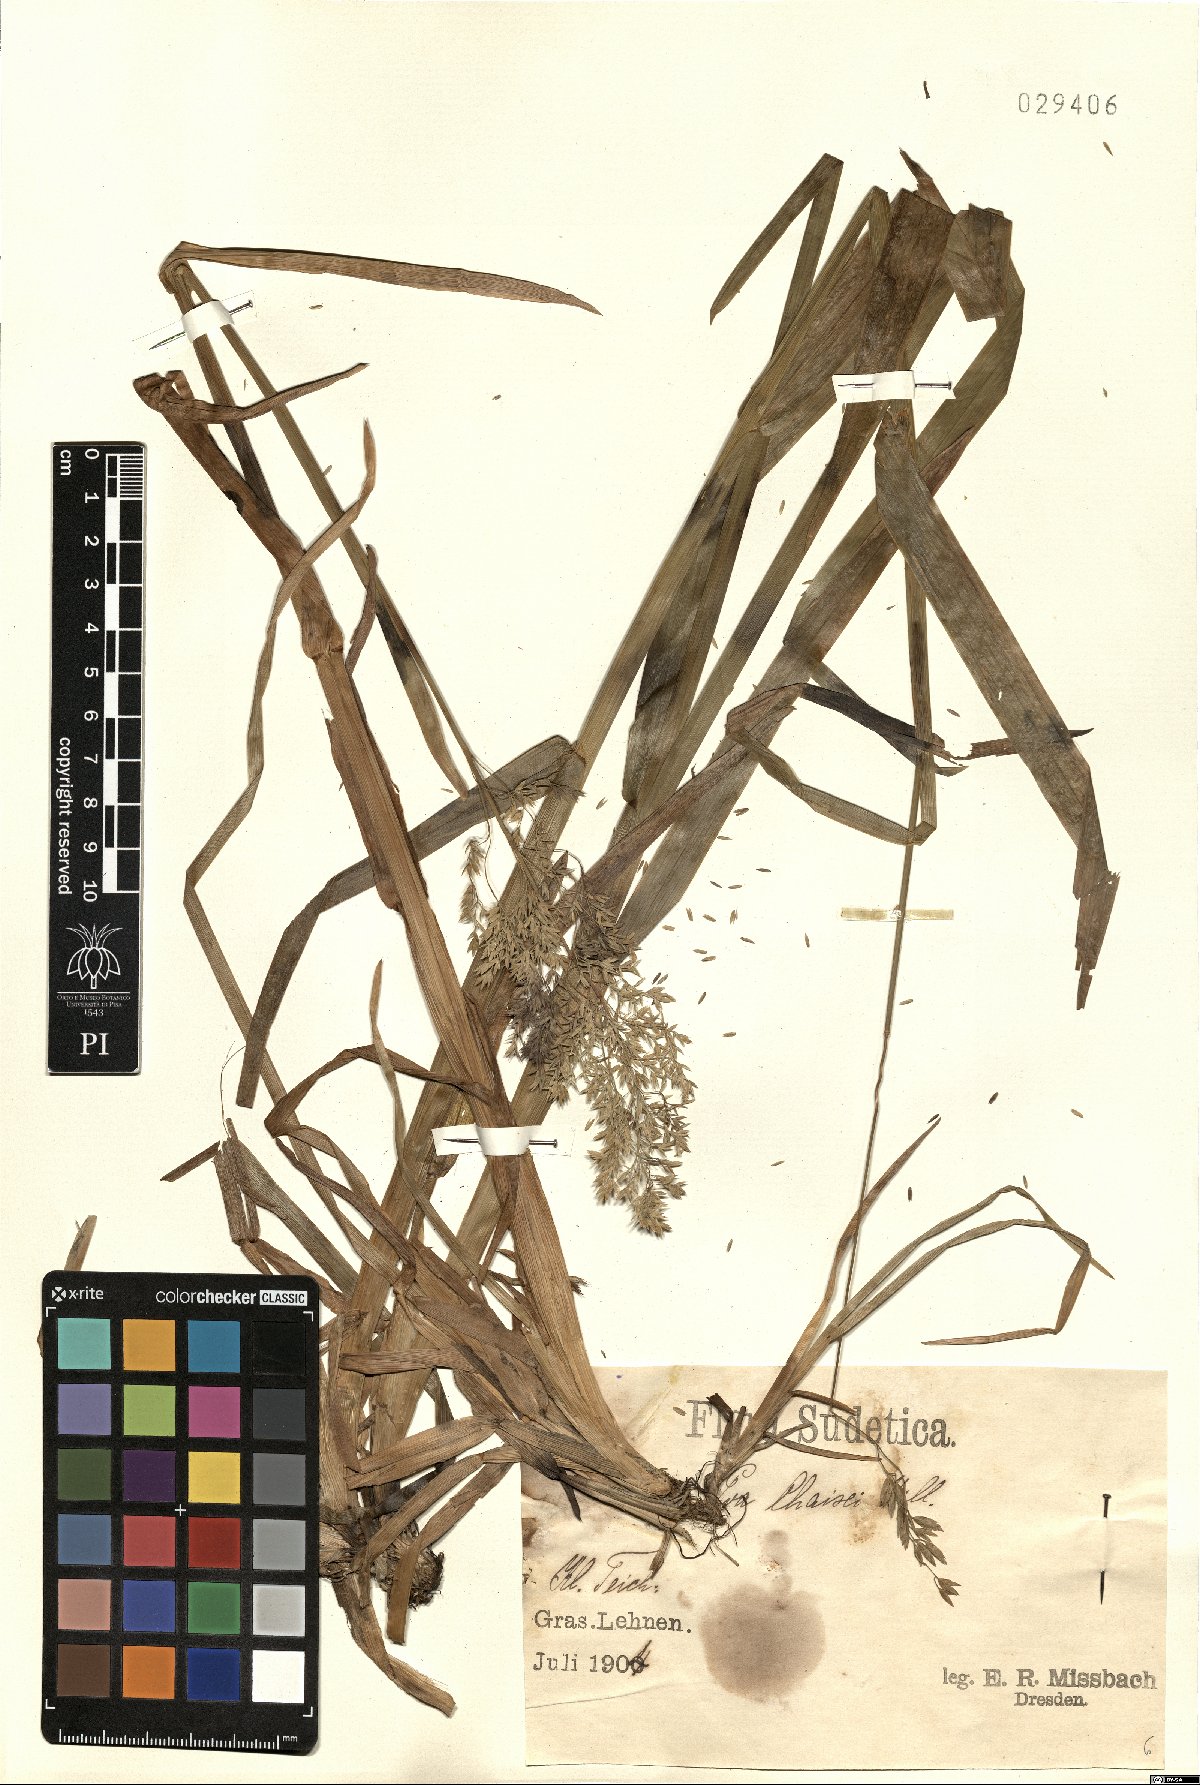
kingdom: Plantae
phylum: Tracheophyta
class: Liliopsida
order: Poales
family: Poaceae
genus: Poa
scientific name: Poa chaixii
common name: Broad-leaved meadow-grass
